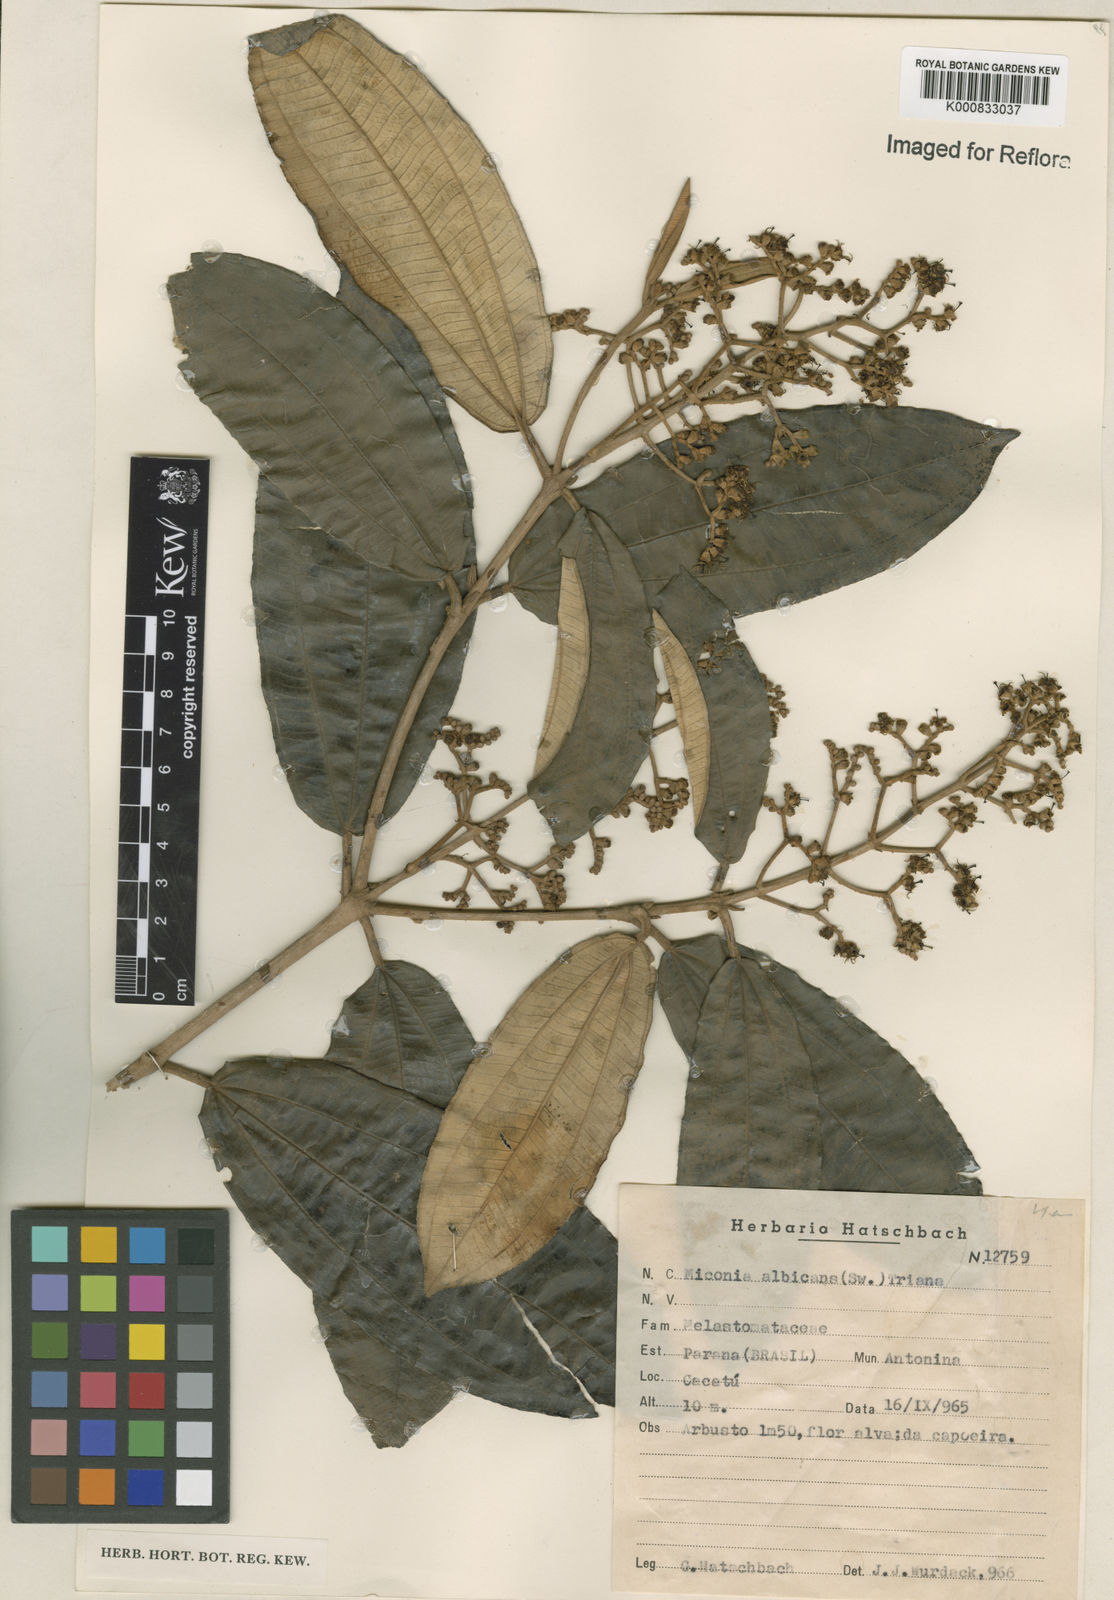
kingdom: Plantae
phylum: Tracheophyta
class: Magnoliopsida
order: Myrtales
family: Melastomataceae
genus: Miconia
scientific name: Miconia albicans
